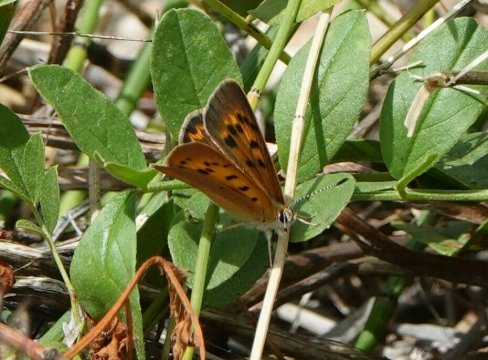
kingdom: Animalia
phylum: Arthropoda
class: Insecta
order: Lepidoptera
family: Sesiidae
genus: Sesia
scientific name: Sesia Lycaena helloides
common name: Purplish Copper
